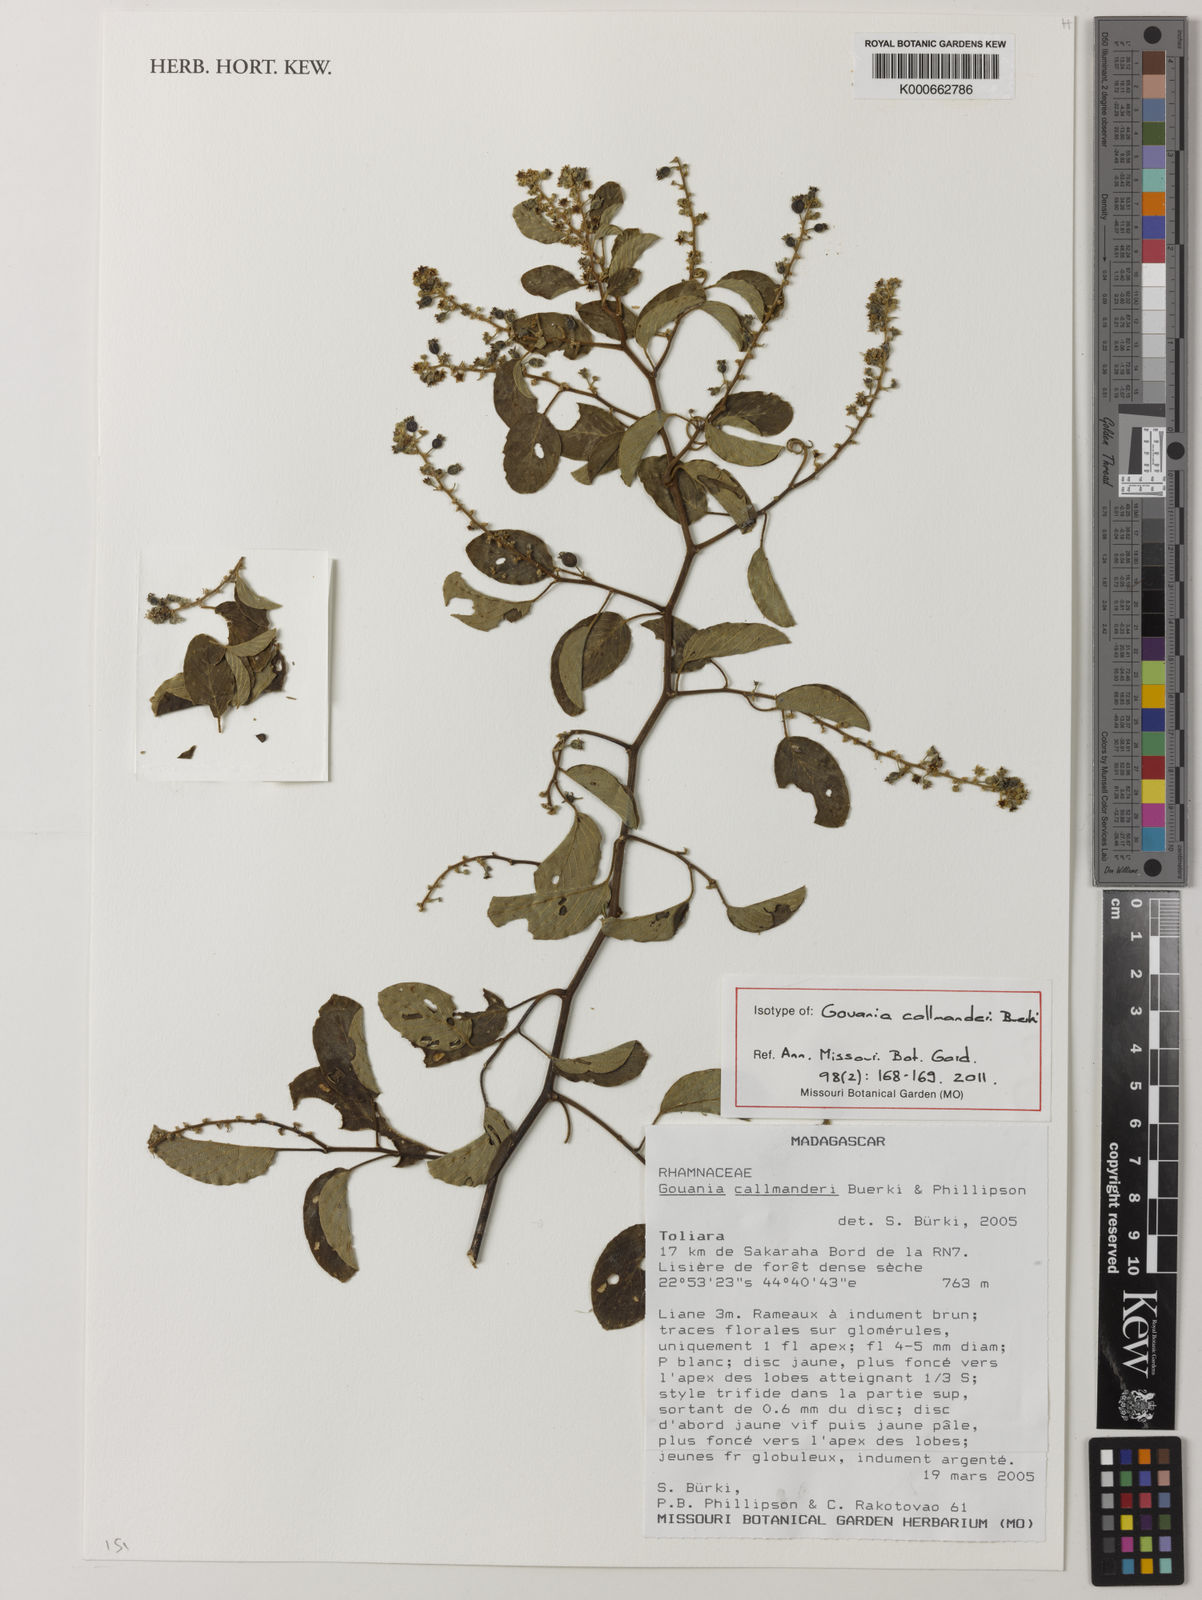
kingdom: Plantae
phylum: Tracheophyta
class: Magnoliopsida
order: Rosales
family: Rhamnaceae
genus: Gouania
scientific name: Gouania callmanderi
